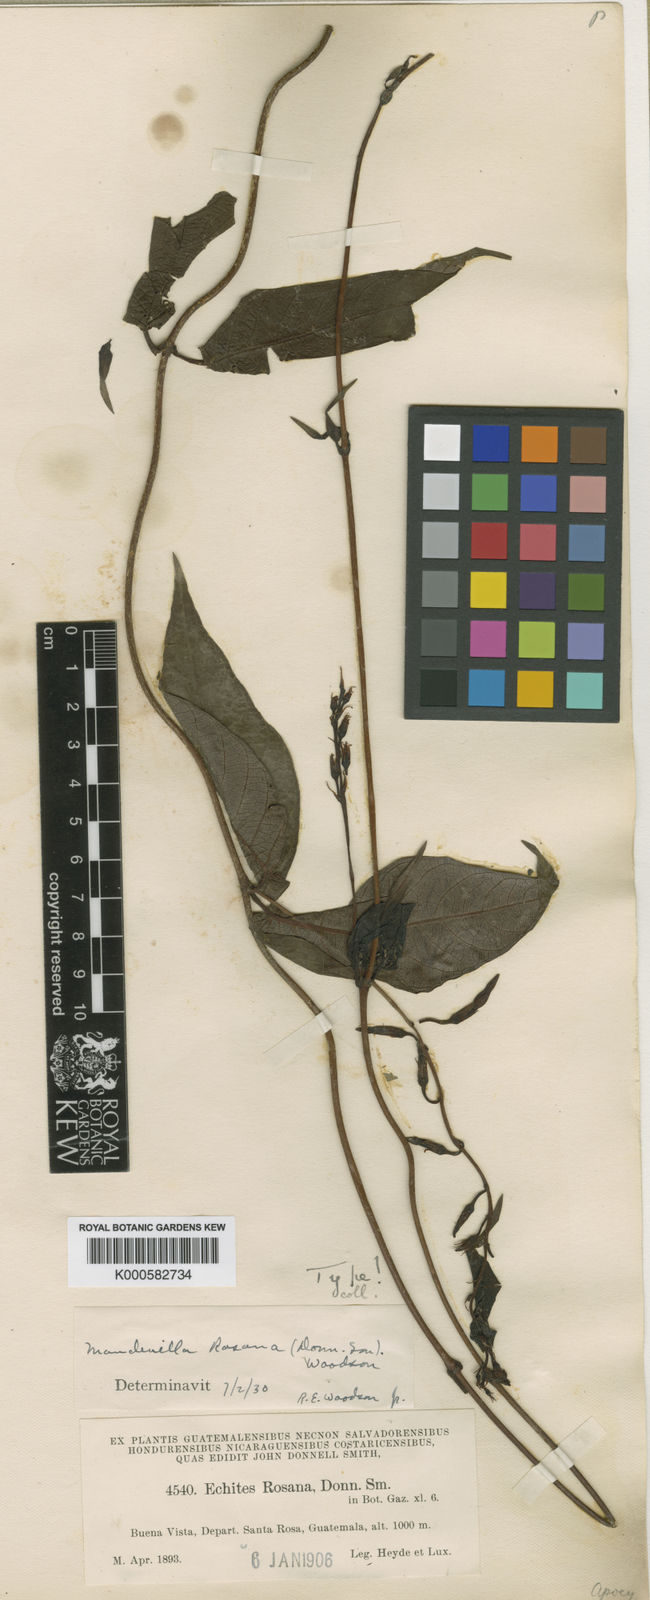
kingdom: Plantae
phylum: Tracheophyta
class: Magnoliopsida
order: Gentianales
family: Apocynaceae
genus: Mandevilla
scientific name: Mandevilla acutiloba
